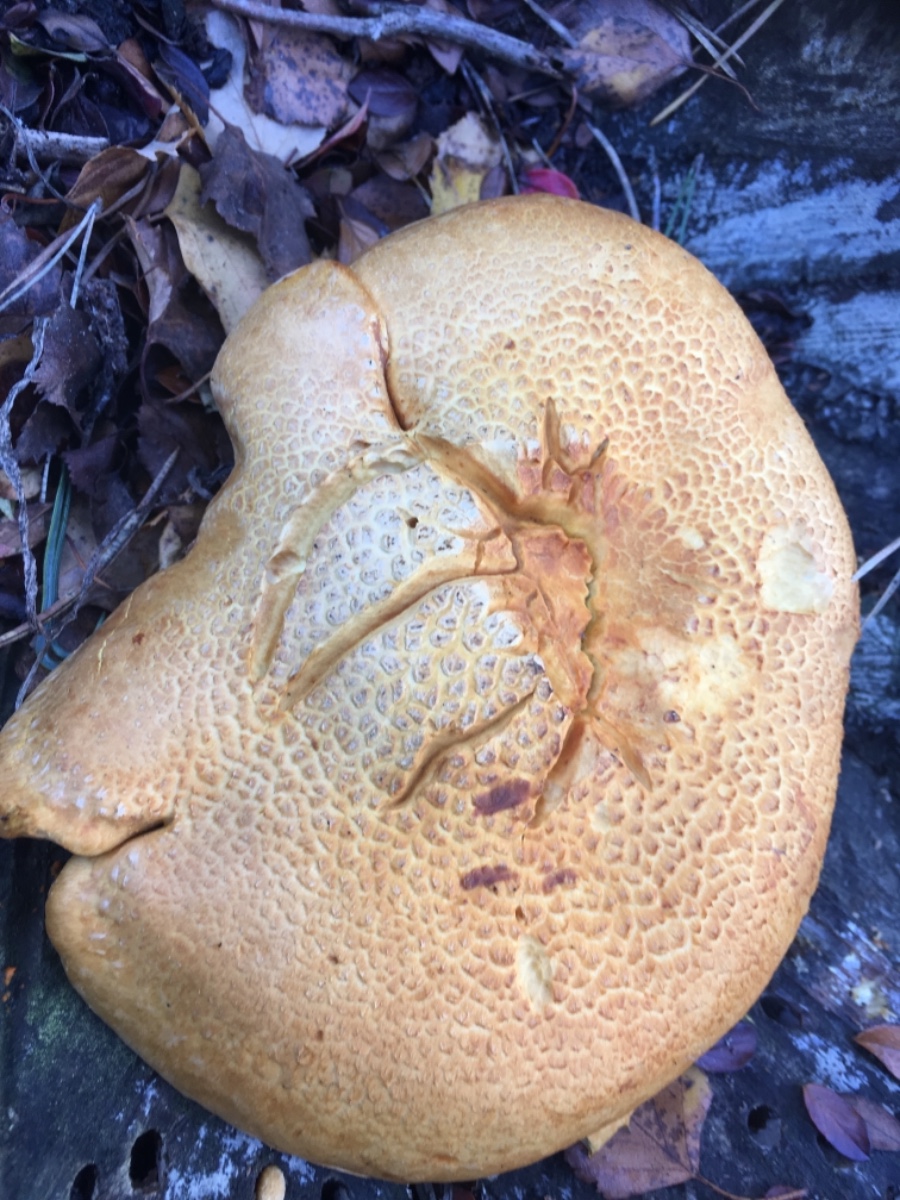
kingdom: Fungi
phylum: Basidiomycota
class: Agaricomycetes
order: Agaricales
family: Hymenogastraceae
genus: Gymnopilus
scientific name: Gymnopilus
